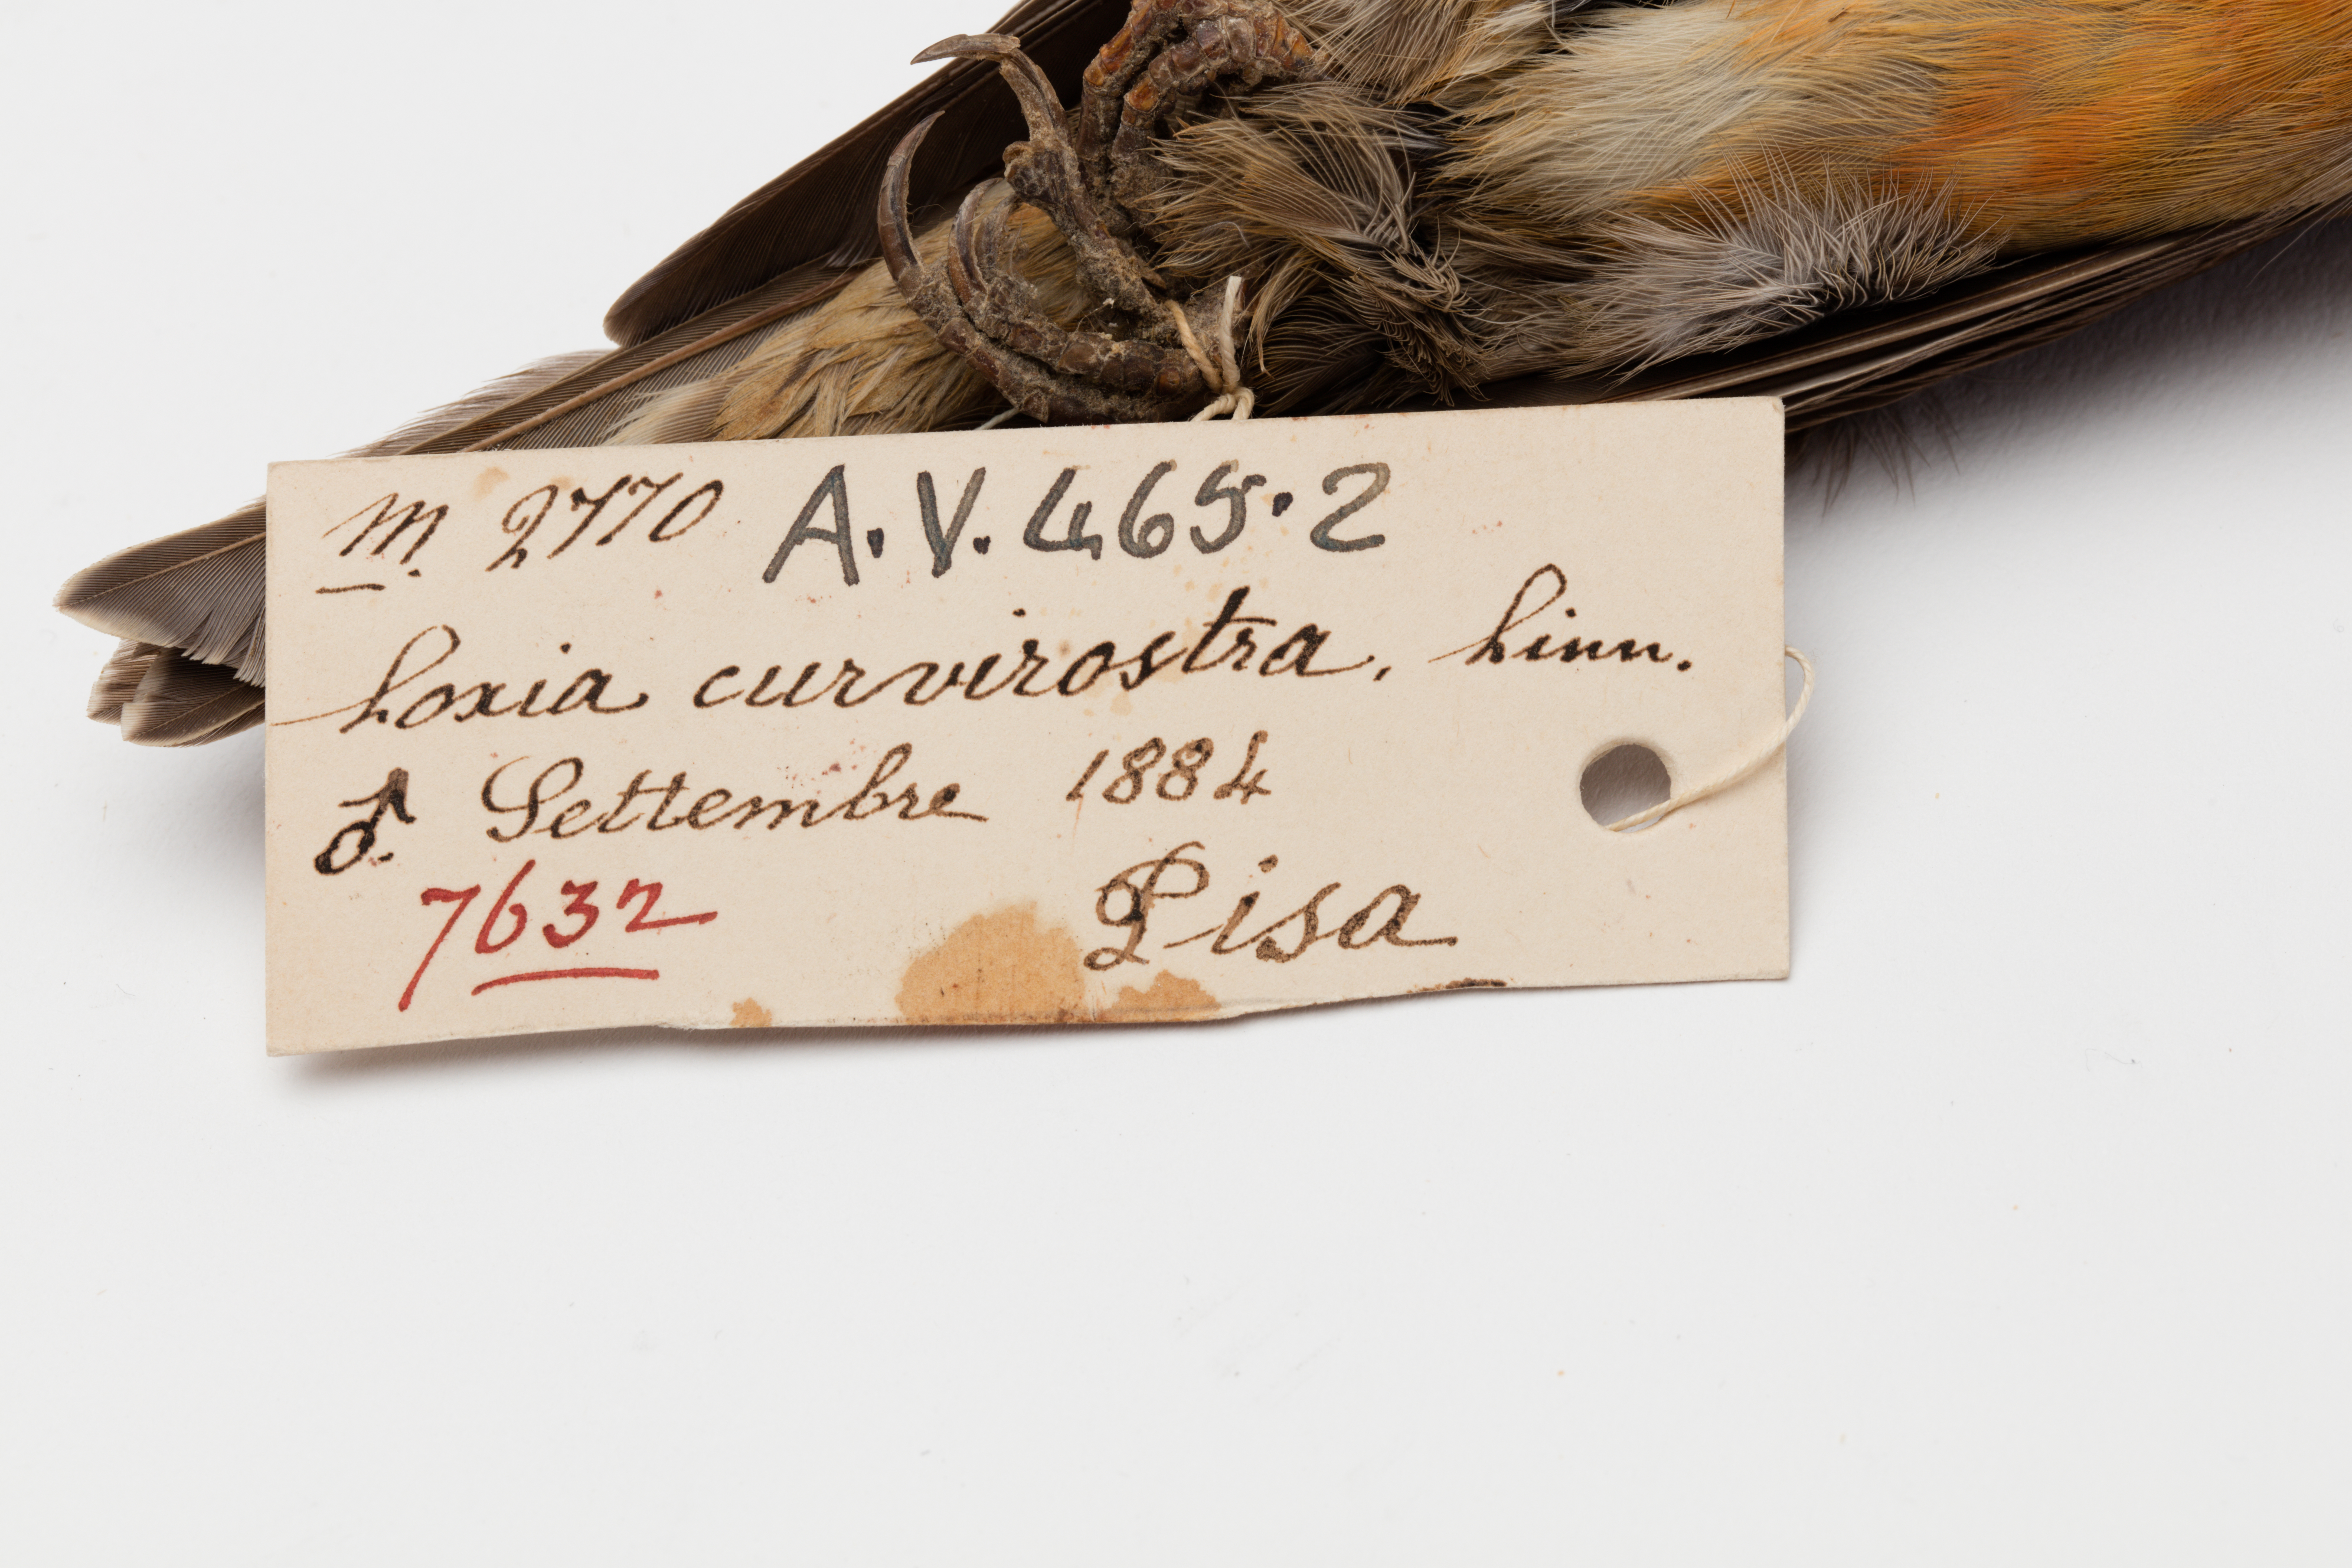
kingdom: Animalia
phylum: Chordata
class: Aves
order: Passeriformes
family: Fringillidae
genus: Loxia
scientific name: Loxia curvirostra
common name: Red crossbill
